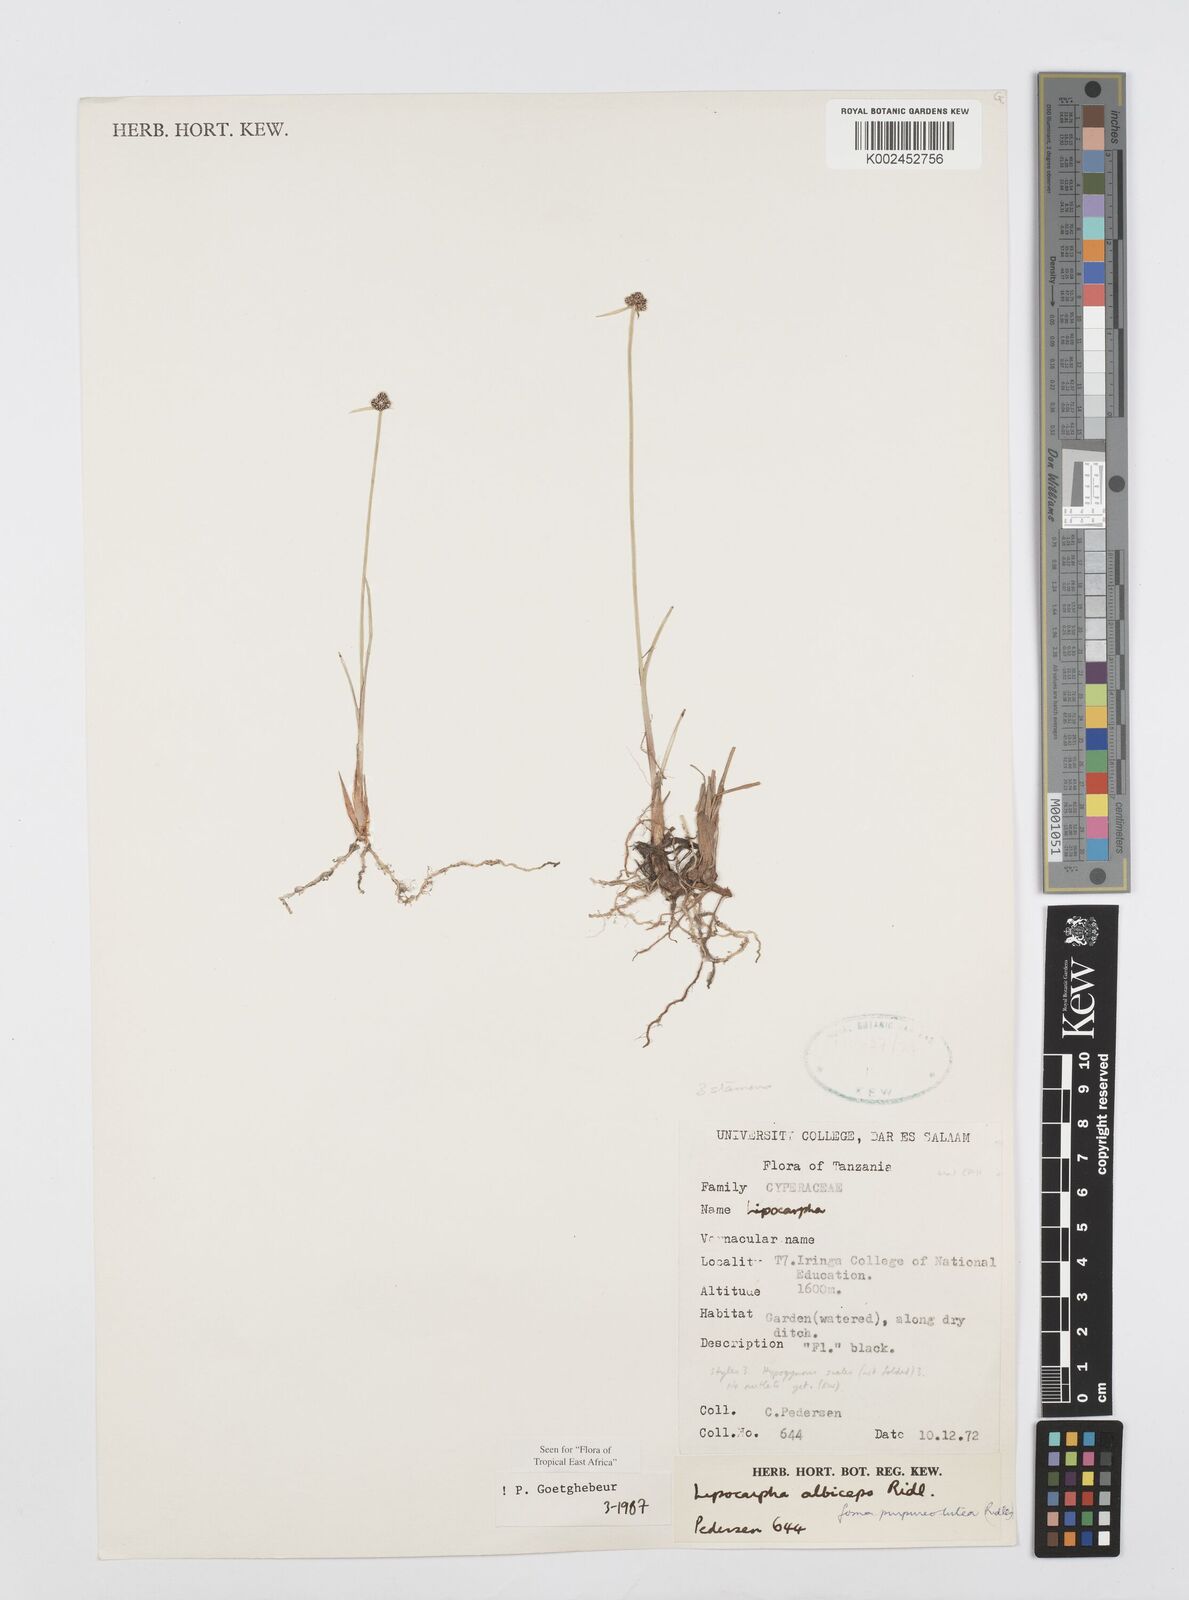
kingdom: Plantae
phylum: Tracheophyta
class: Liliopsida
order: Poales
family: Cyperaceae
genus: Cyperus
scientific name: Cyperus albiceps
